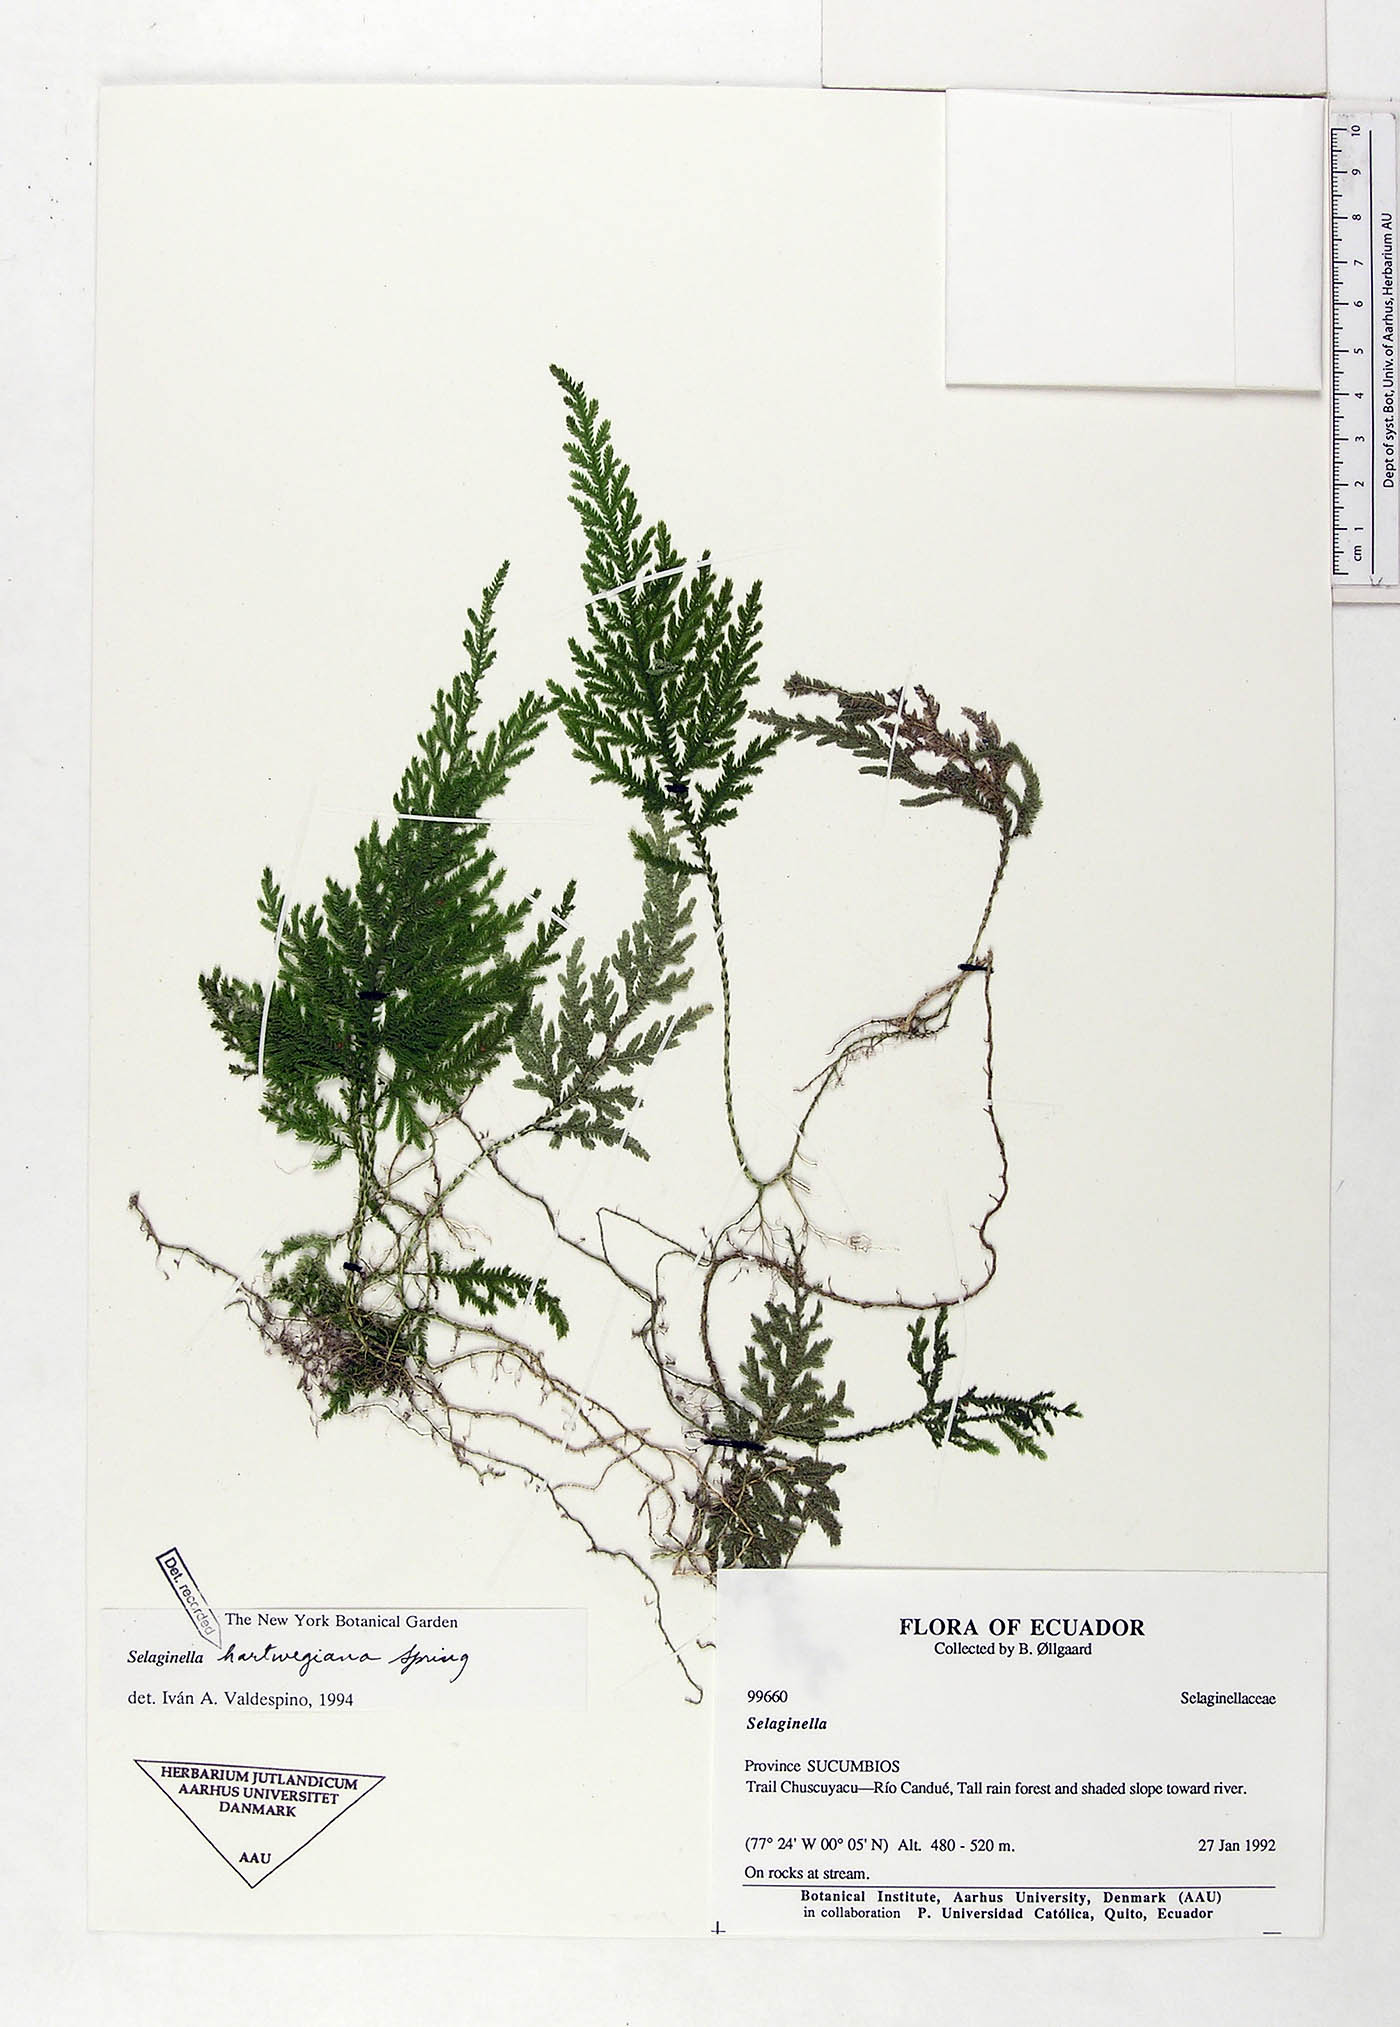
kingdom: Plantae
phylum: Tracheophyta
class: Lycopodiopsida
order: Selaginellales
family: Selaginellaceae
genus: Selaginella
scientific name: Selaginella hartwegiana
